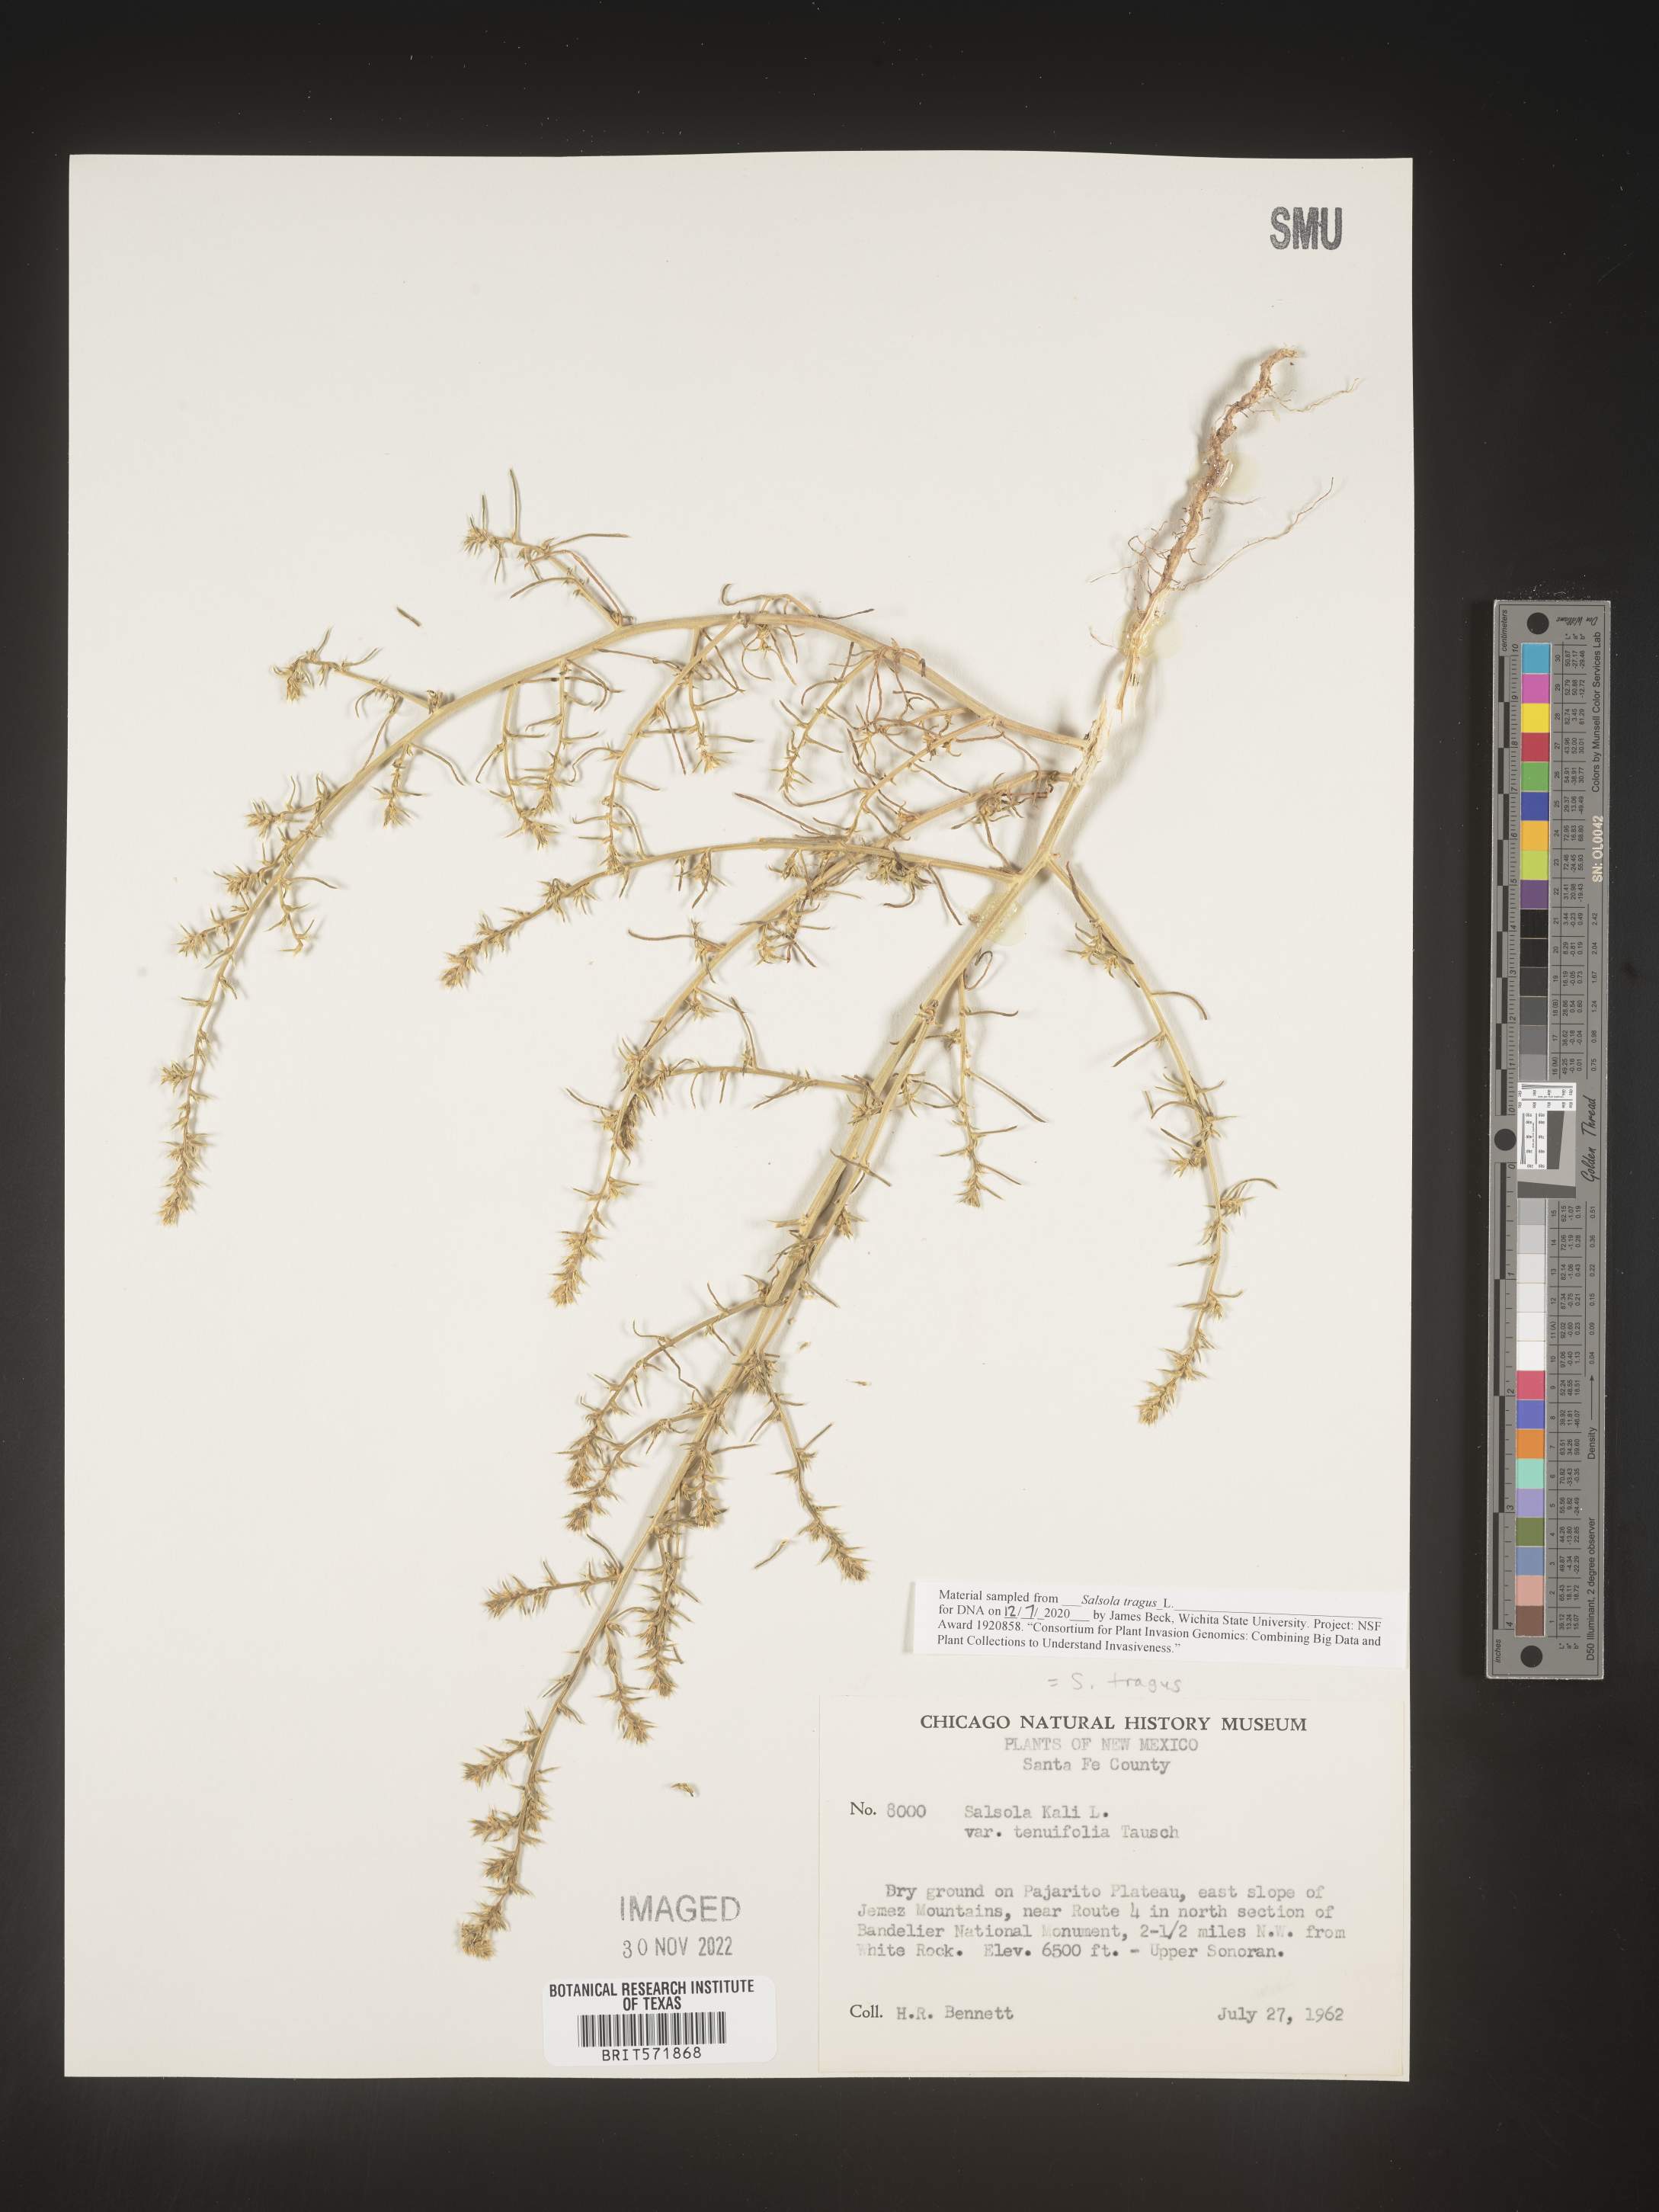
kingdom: Plantae
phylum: Tracheophyta
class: Magnoliopsida
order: Caryophyllales
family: Amaranthaceae
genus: Salsola
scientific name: Salsola tragus
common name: Prickly russian thistle
